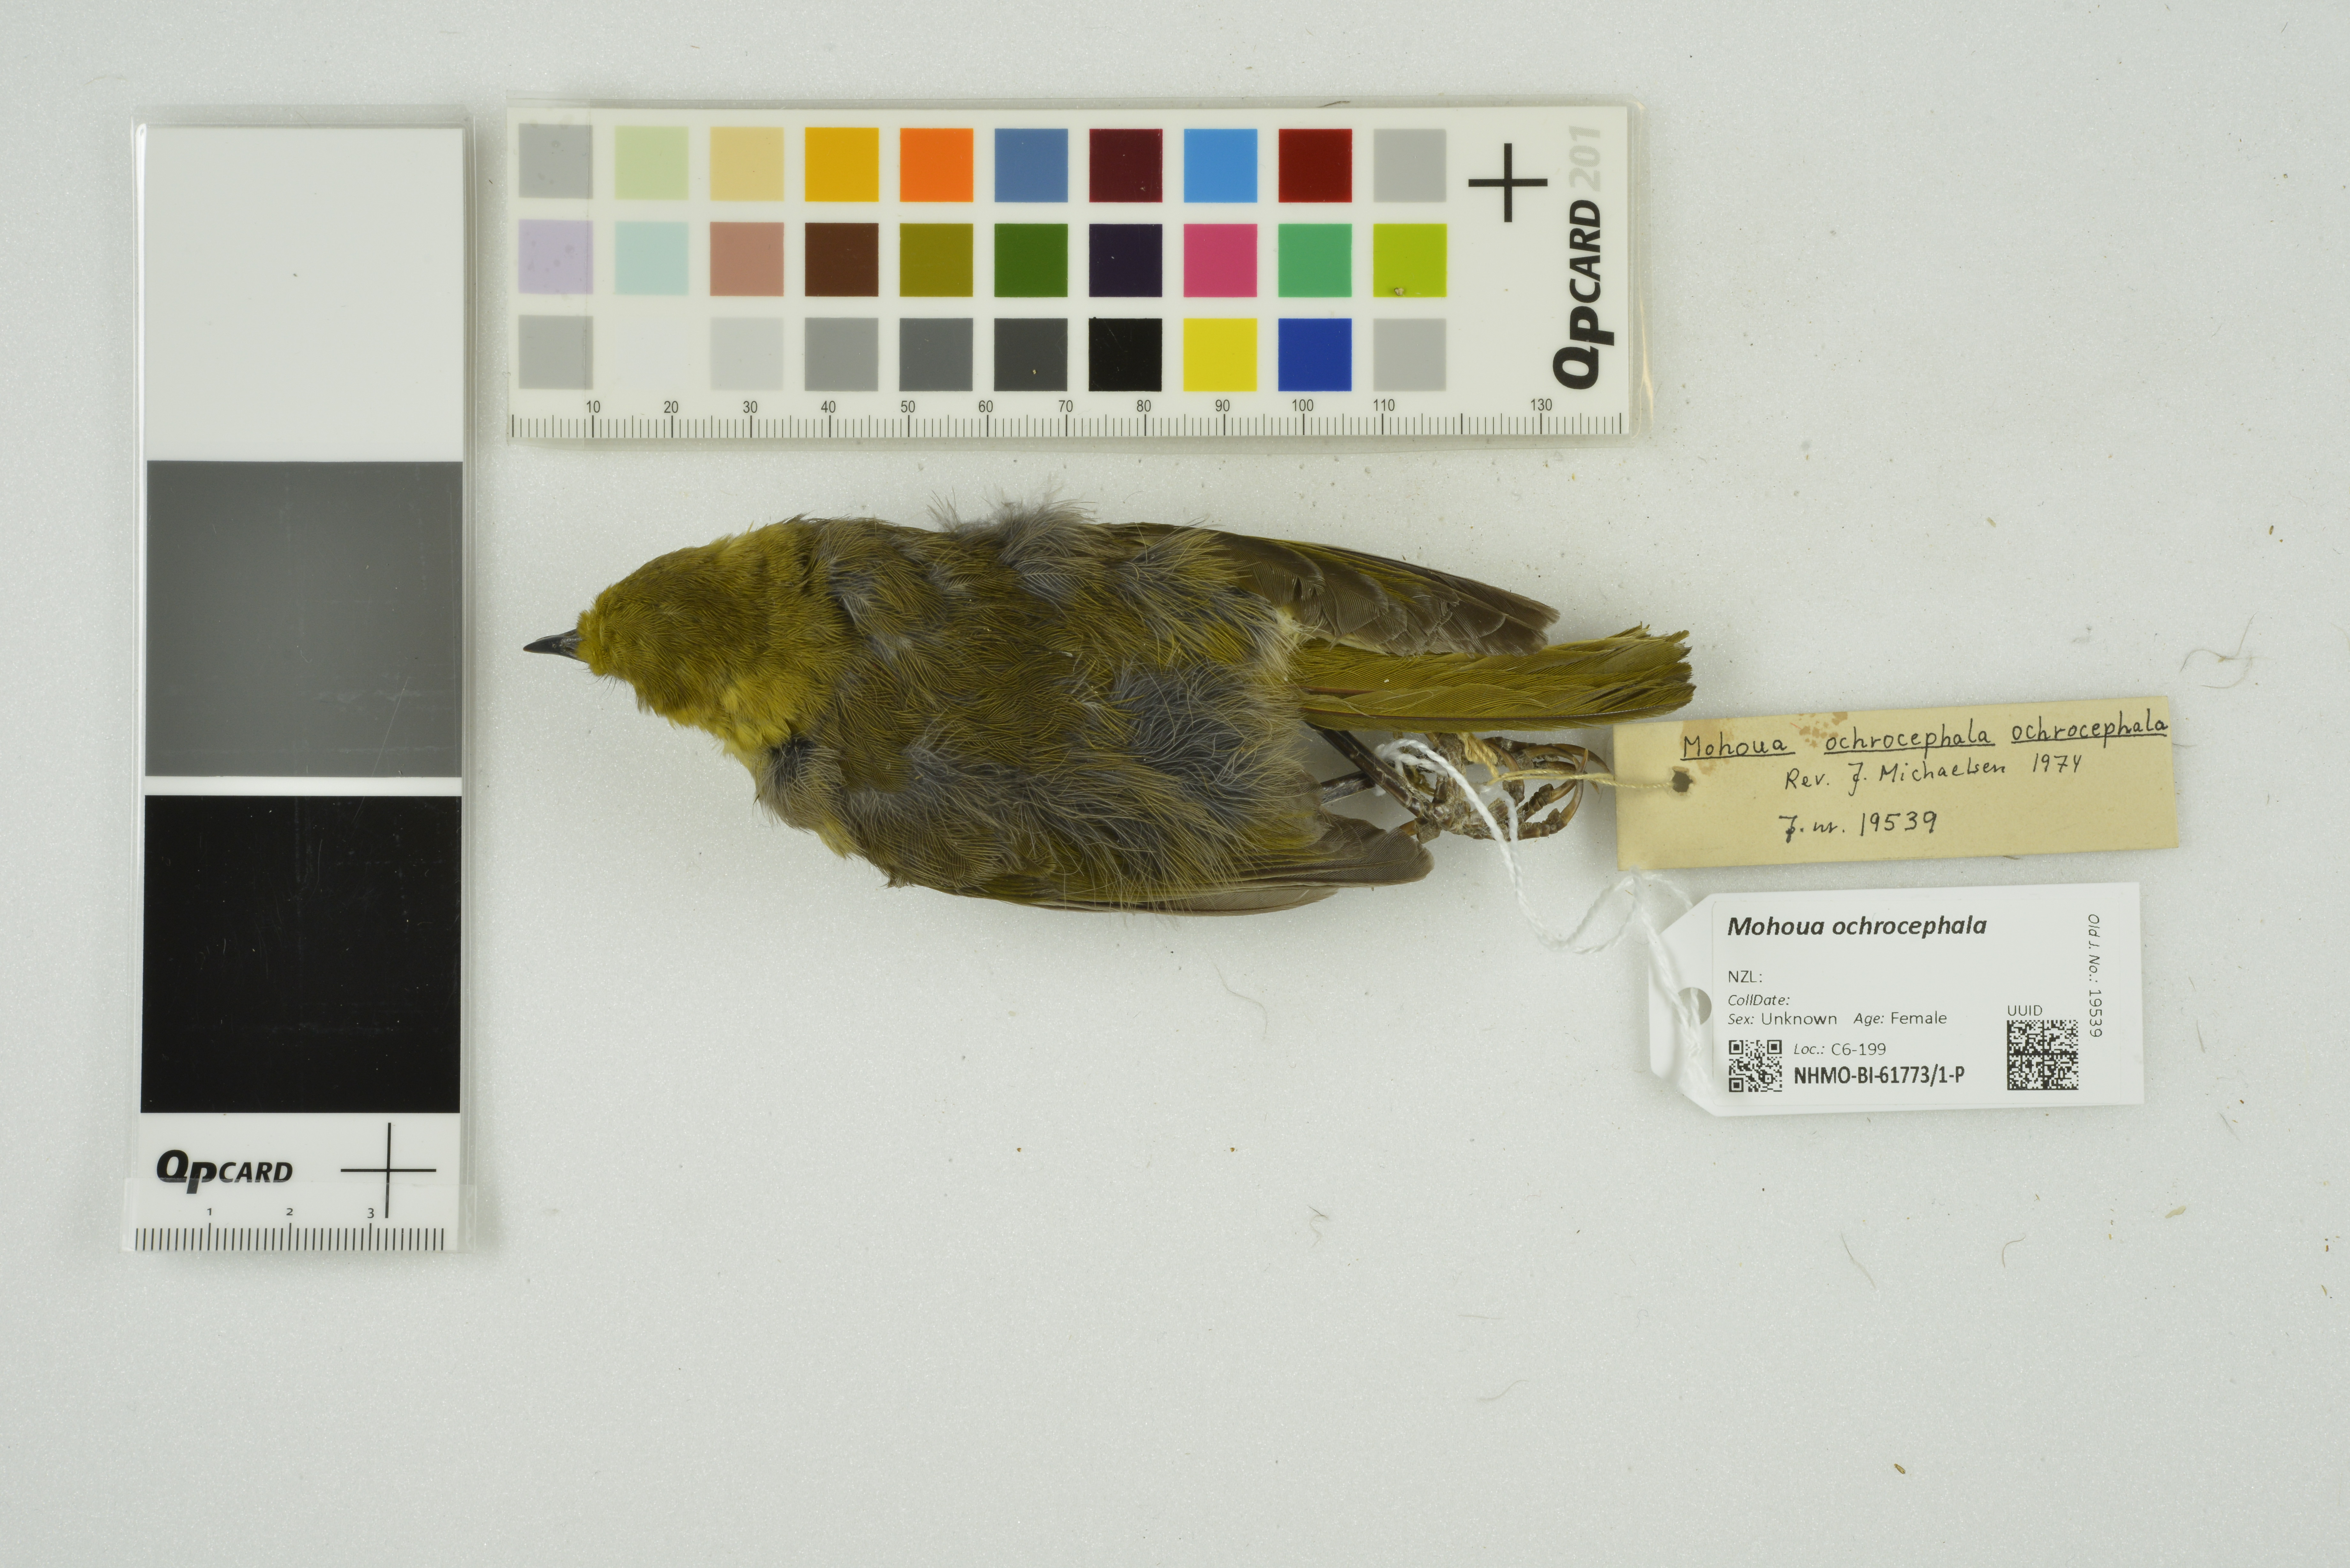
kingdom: Animalia
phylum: Chordata
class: Aves
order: Passeriformes
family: Acanthizidae
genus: Mohoua
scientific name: Mohoua ochrocephala
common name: Yellowhead
